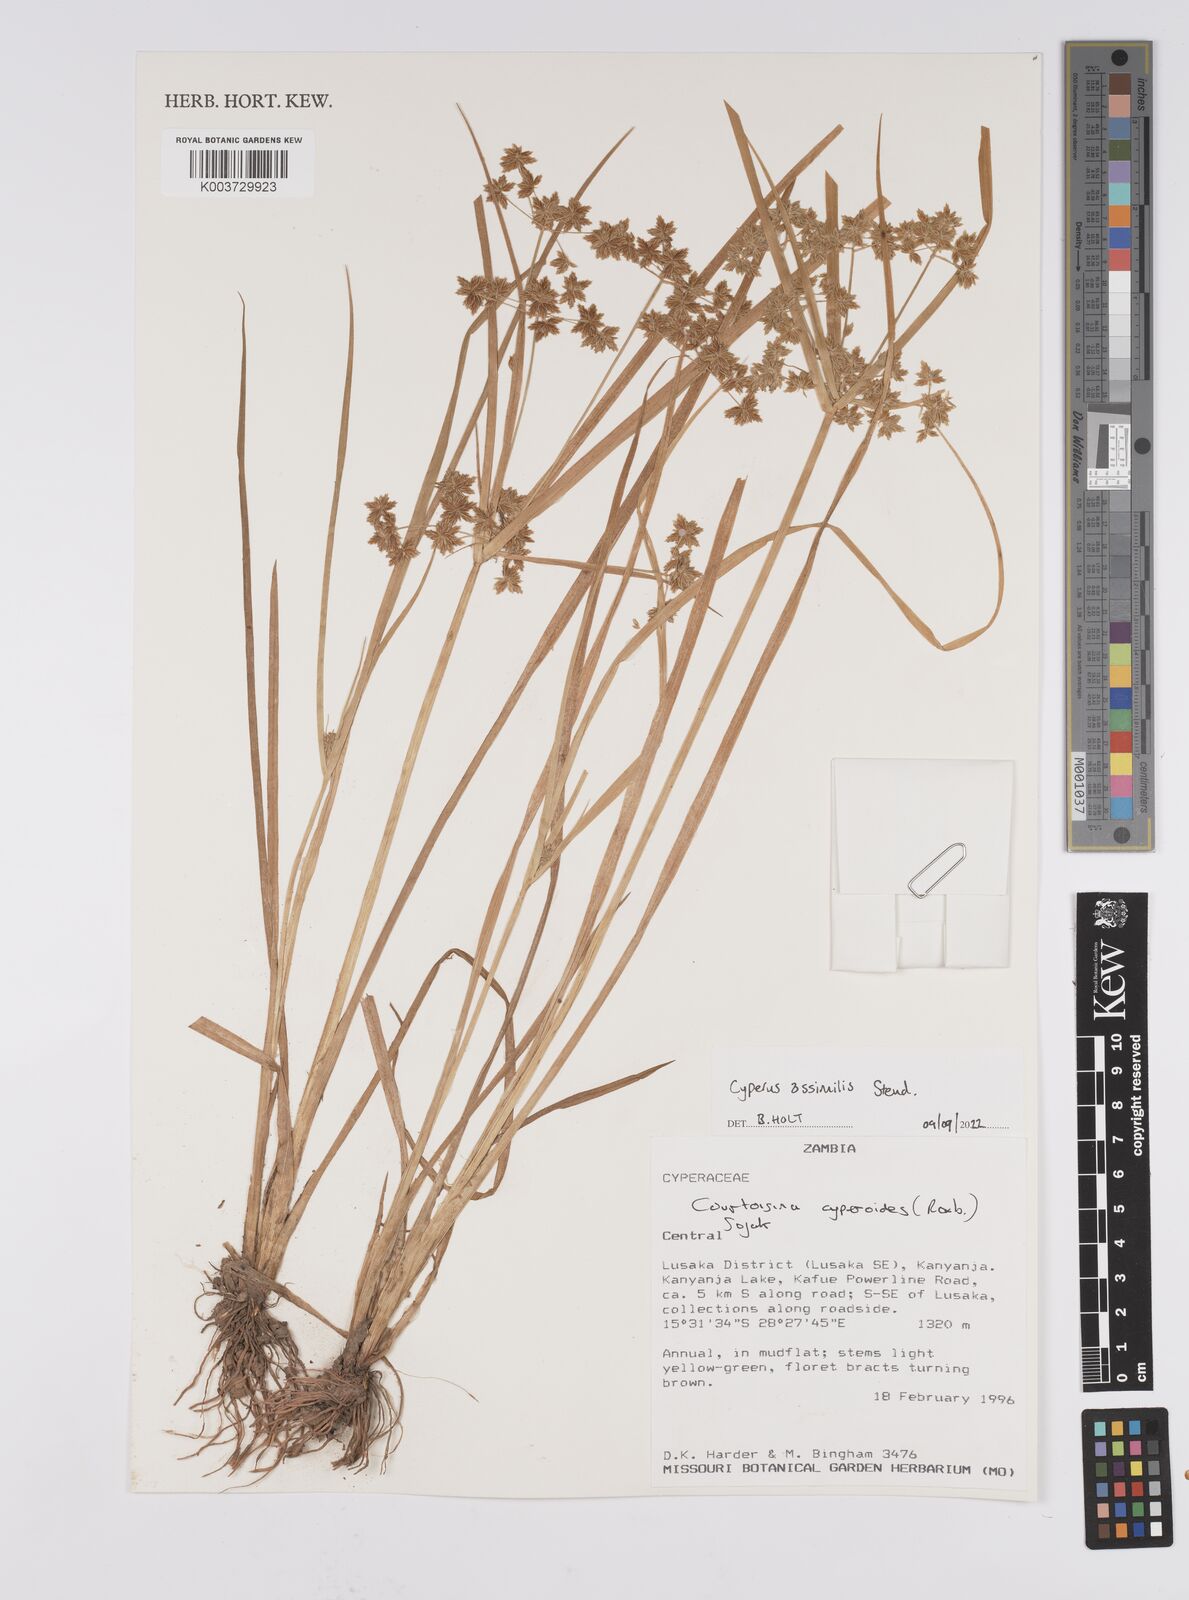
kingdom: Plantae
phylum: Tracheophyta
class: Liliopsida
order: Poales
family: Cyperaceae
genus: Cyperus
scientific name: Cyperus assimilis
